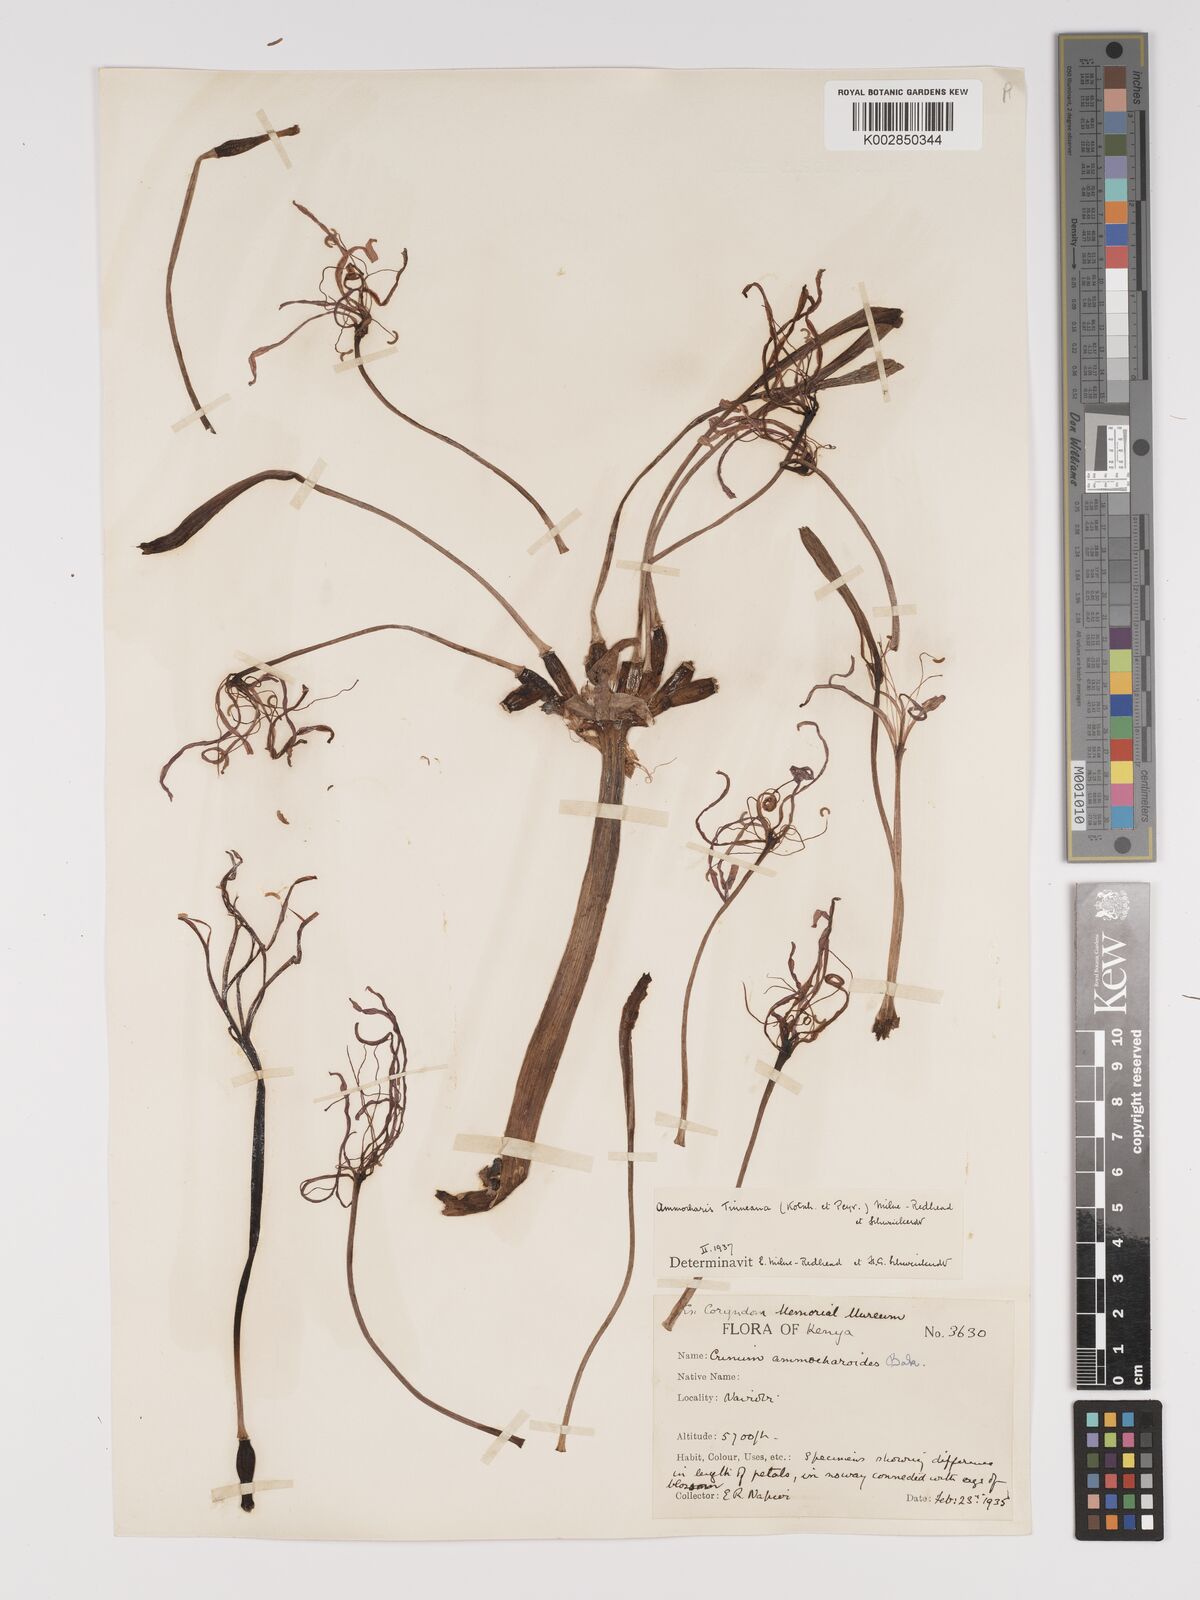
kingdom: Plantae
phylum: Tracheophyta
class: Liliopsida
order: Asparagales
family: Amaryllidaceae
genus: Ammocharis
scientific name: Ammocharis tinneana
